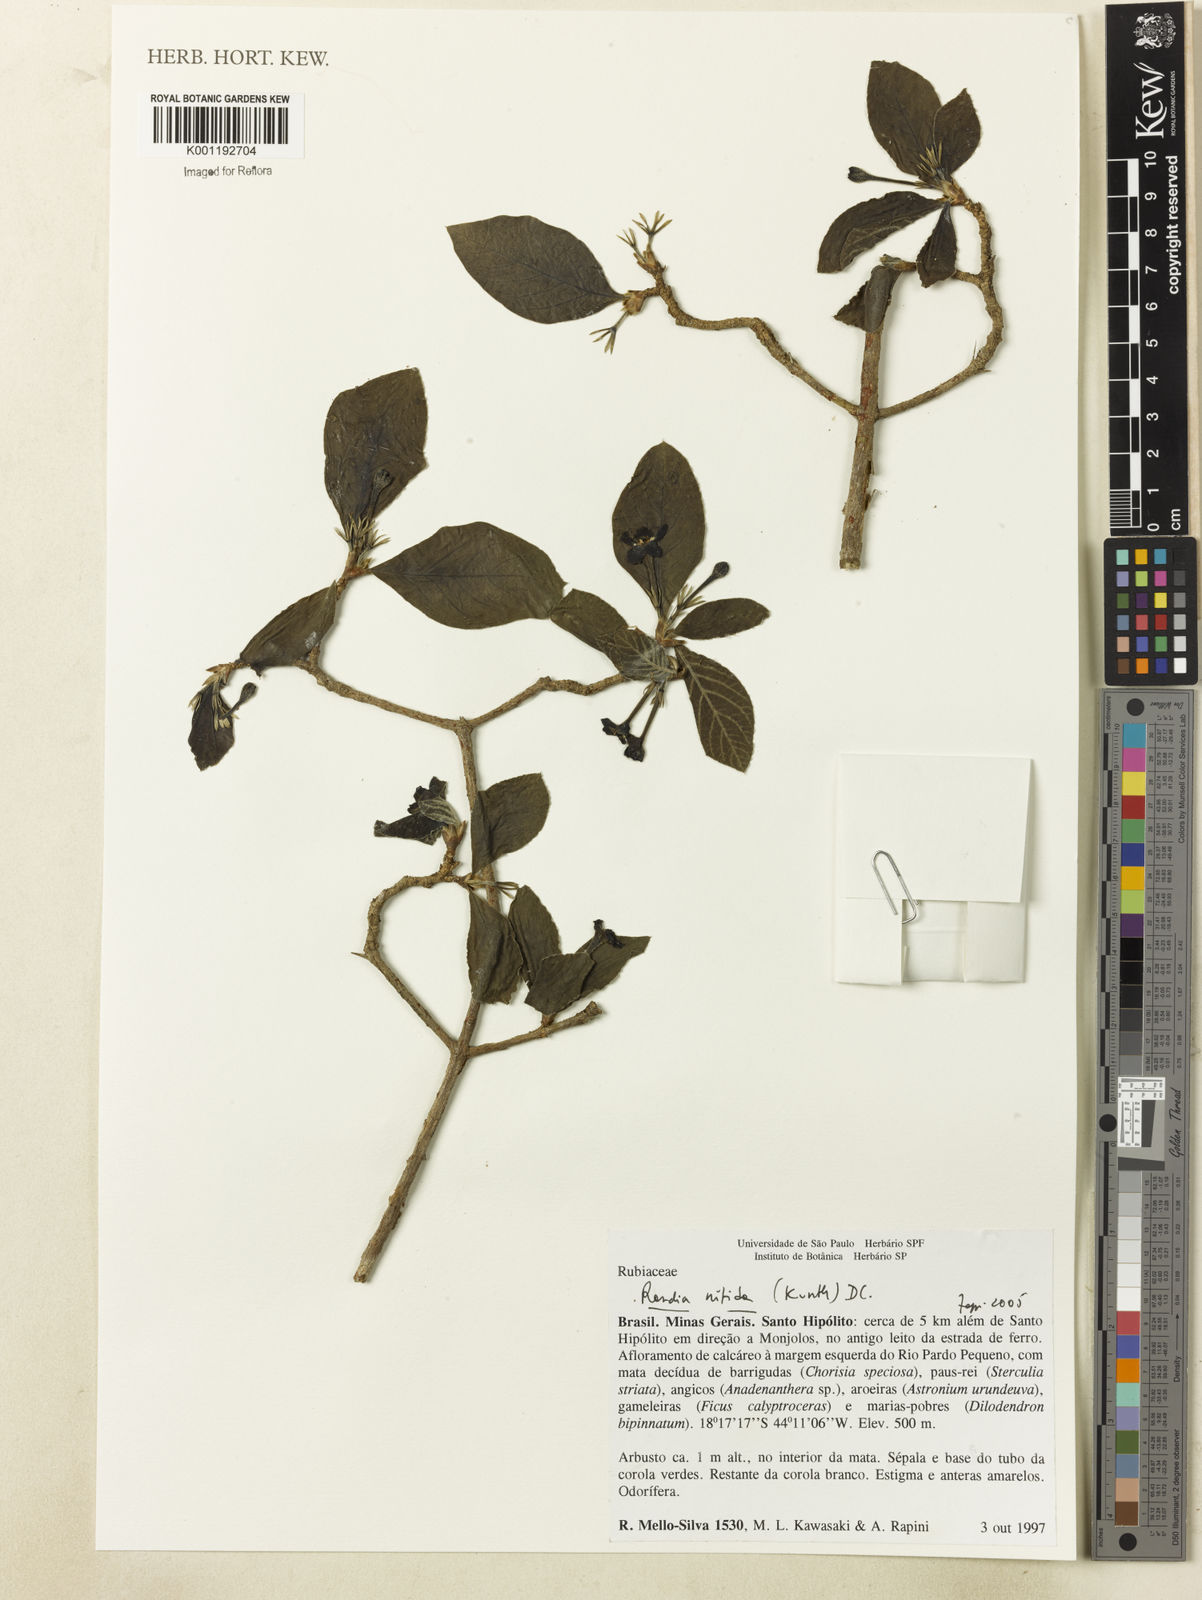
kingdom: Plantae
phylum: Tracheophyta
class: Magnoliopsida
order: Gentianales
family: Rubiaceae
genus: Randia
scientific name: Randia nitida
